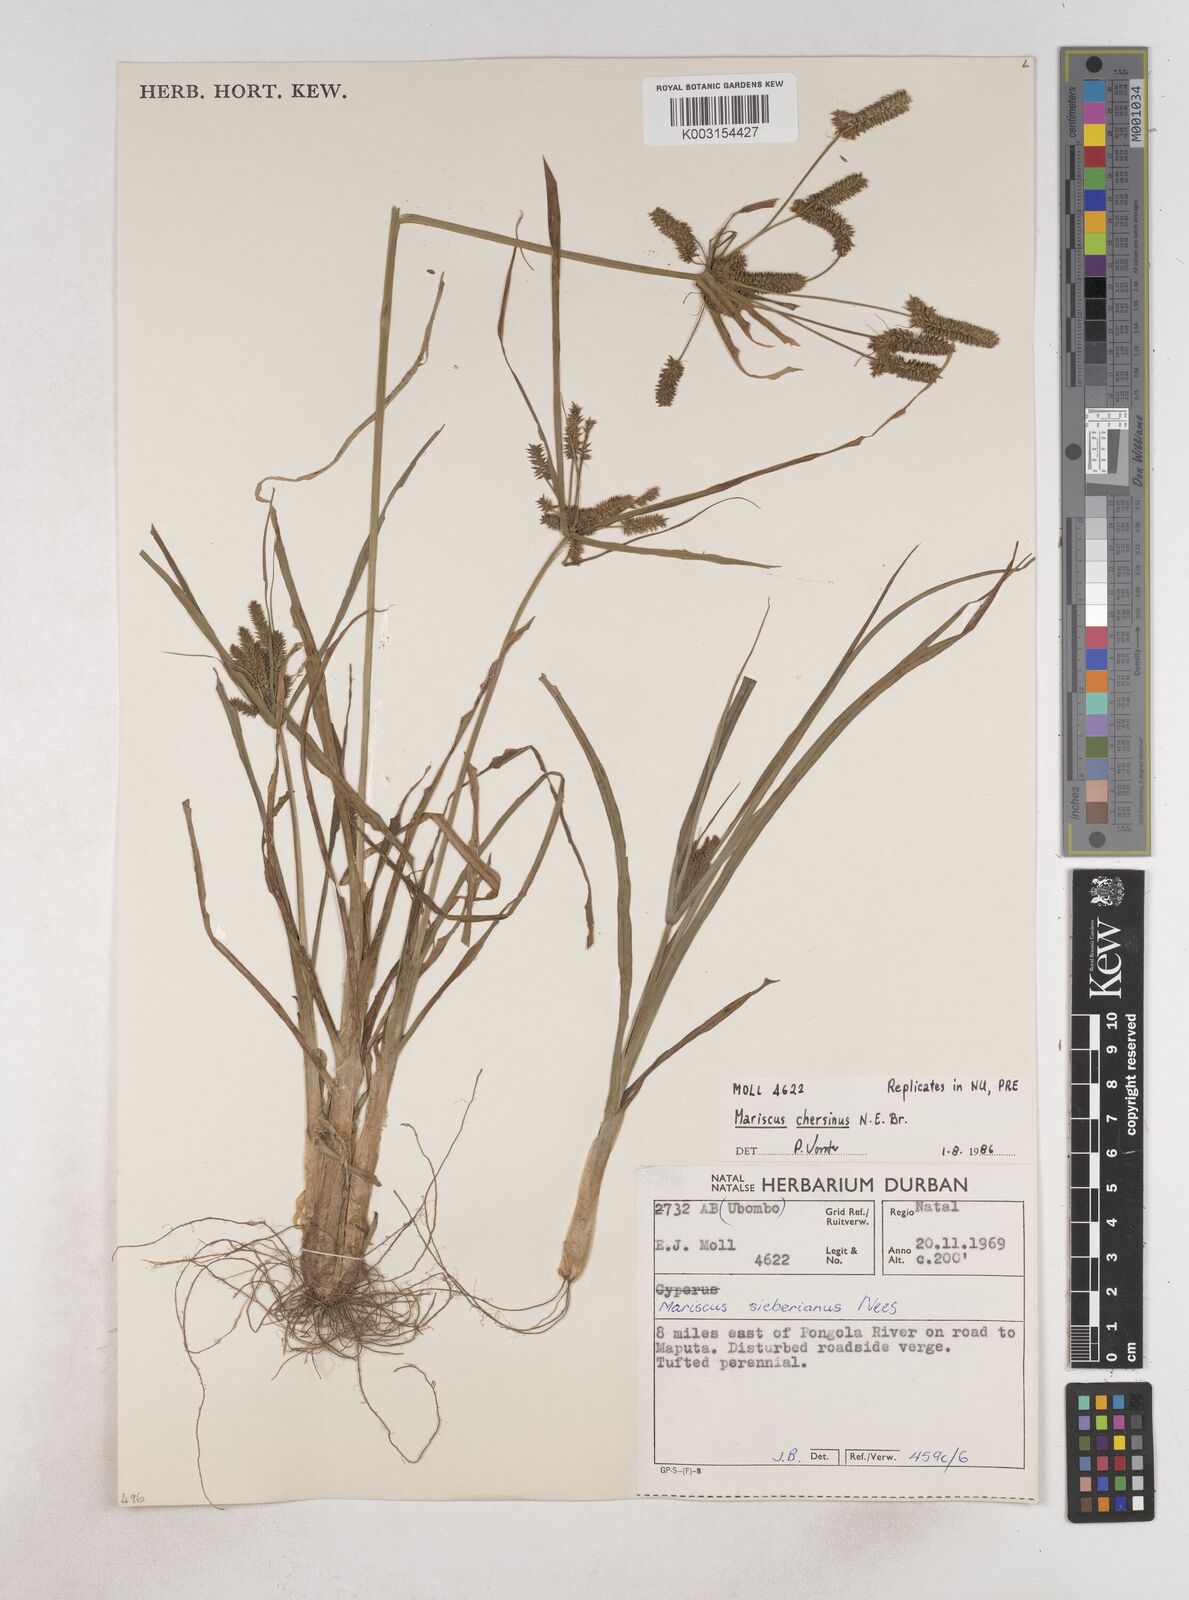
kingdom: Plantae
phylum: Tracheophyta
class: Liliopsida
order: Poales
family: Cyperaceae
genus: Cyperus
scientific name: Cyperus chersinus
